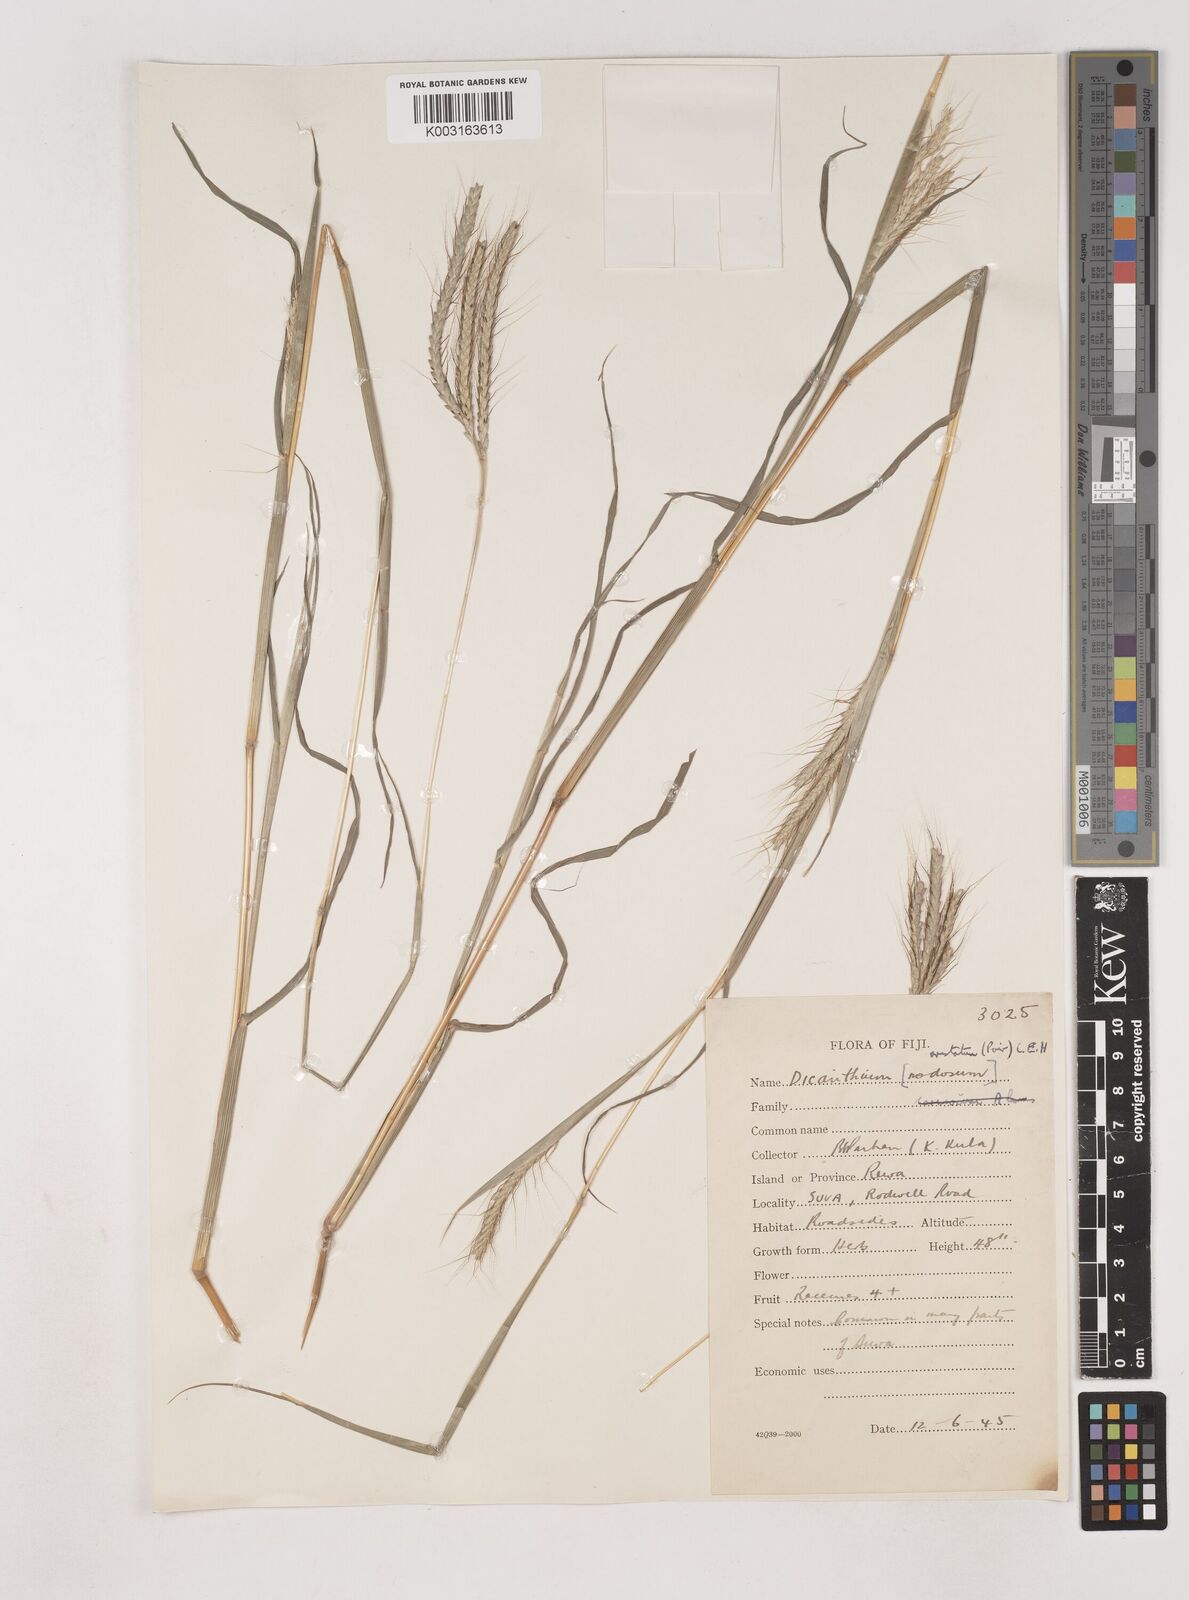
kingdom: Plantae
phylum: Tracheophyta
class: Liliopsida
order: Poales
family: Poaceae
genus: Dichanthium
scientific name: Dichanthium aristatum
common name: Angleton bluestem
